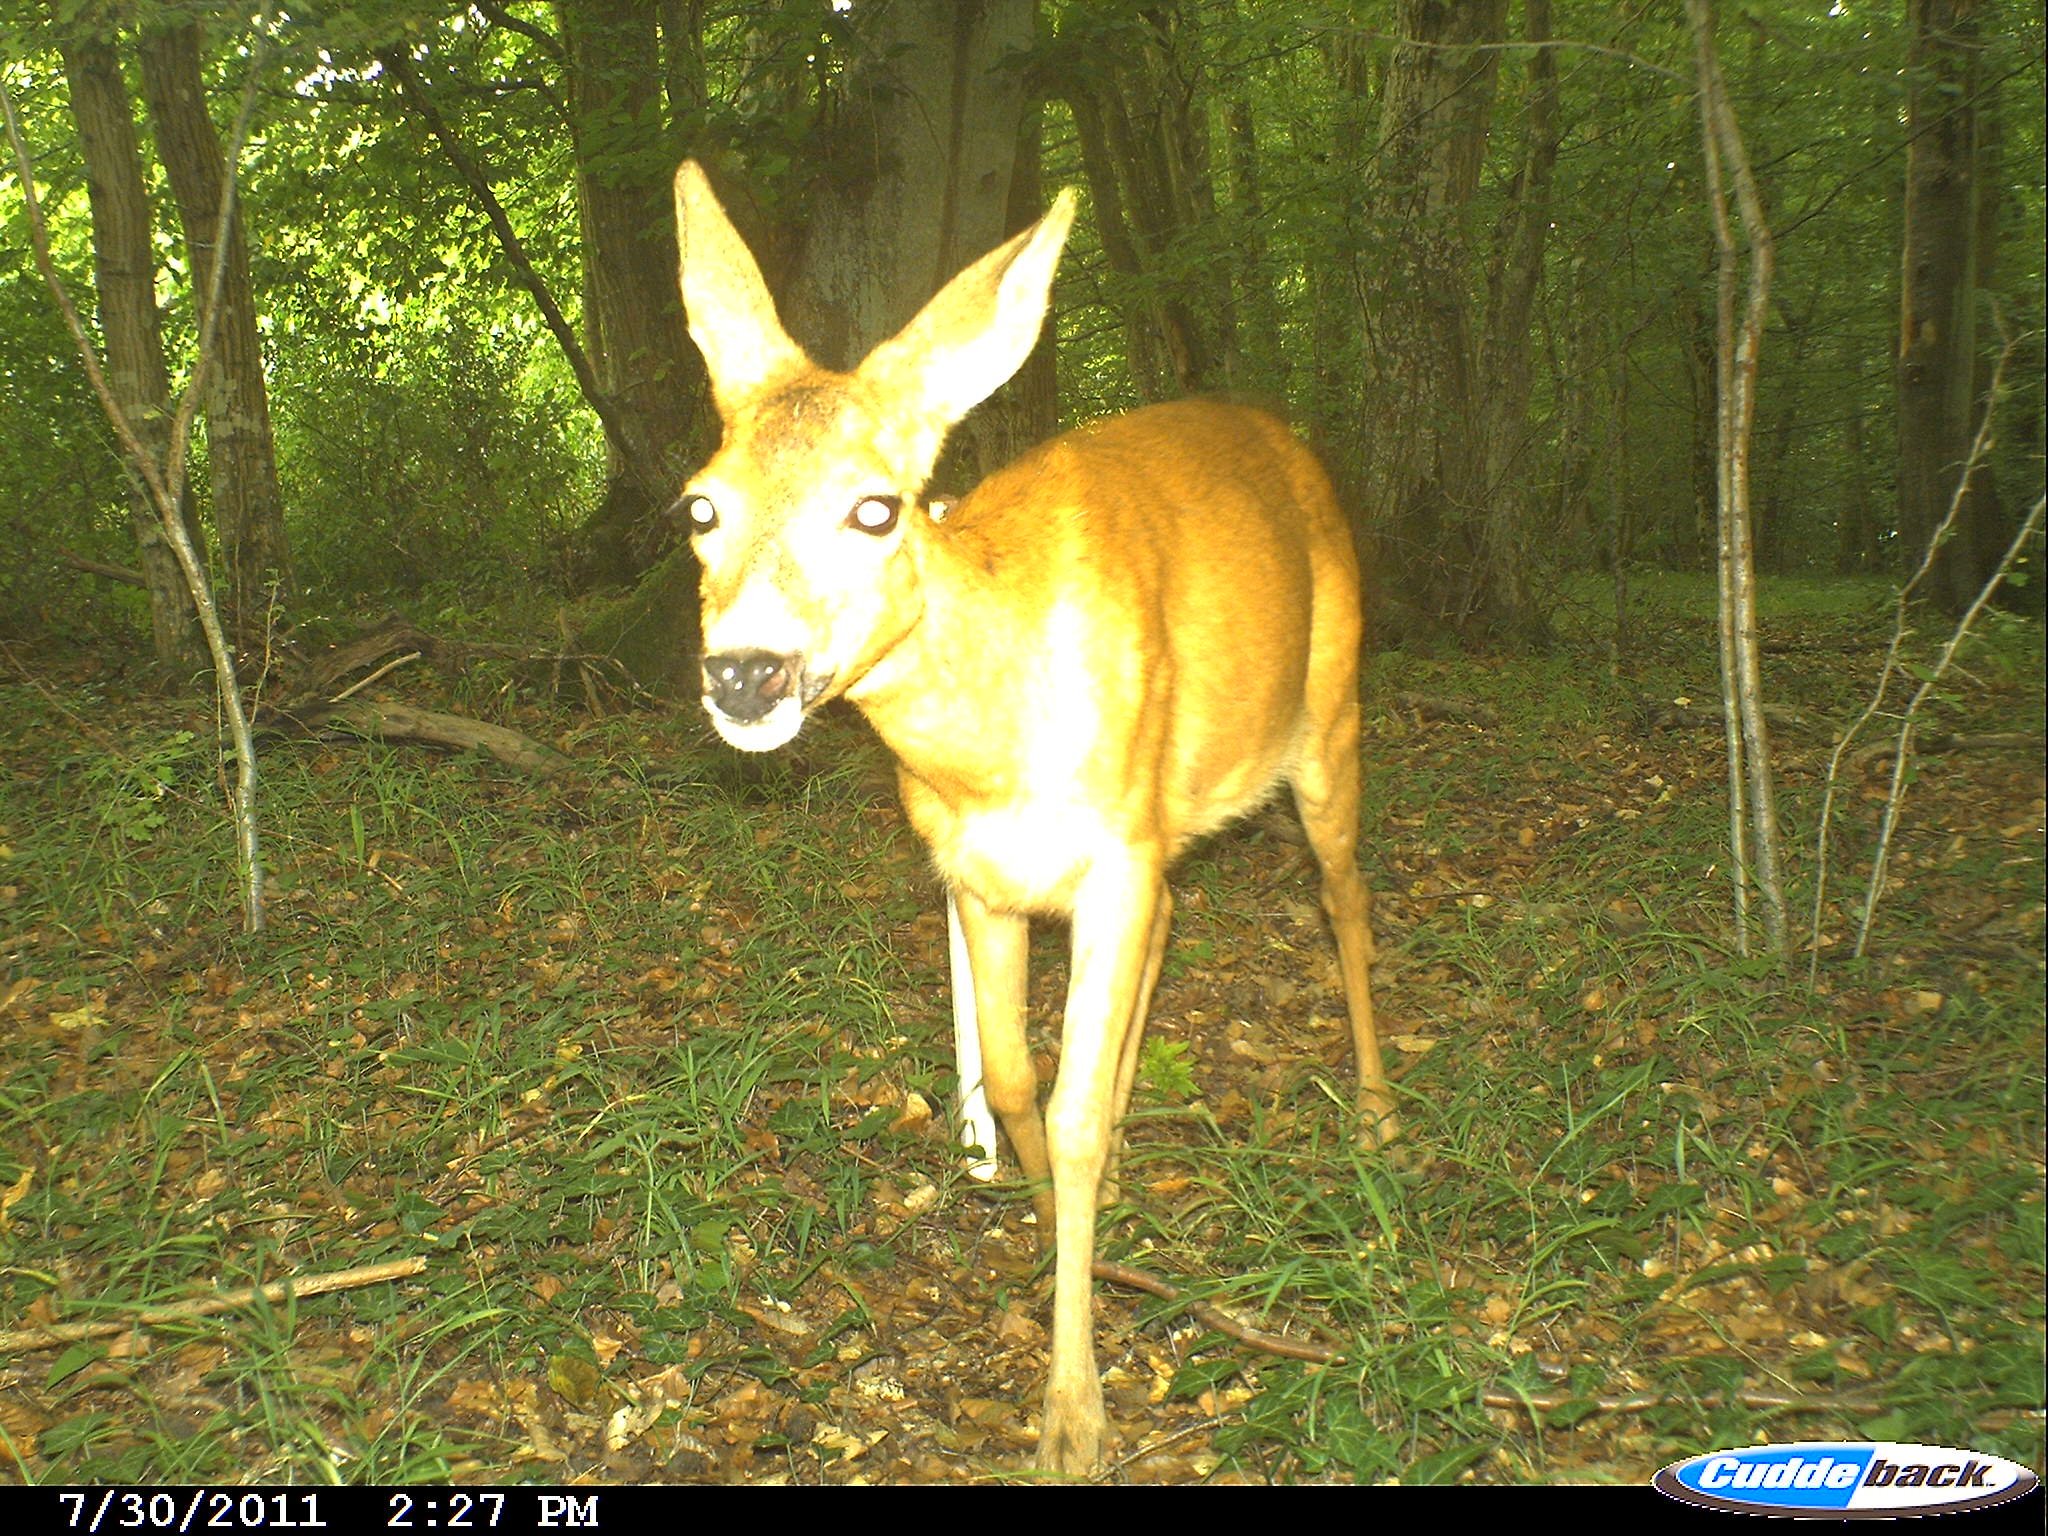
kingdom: Animalia
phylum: Chordata
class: Mammalia
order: Artiodactyla
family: Cervidae
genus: Capreolus
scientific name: Capreolus capreolus
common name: Western roe deer
